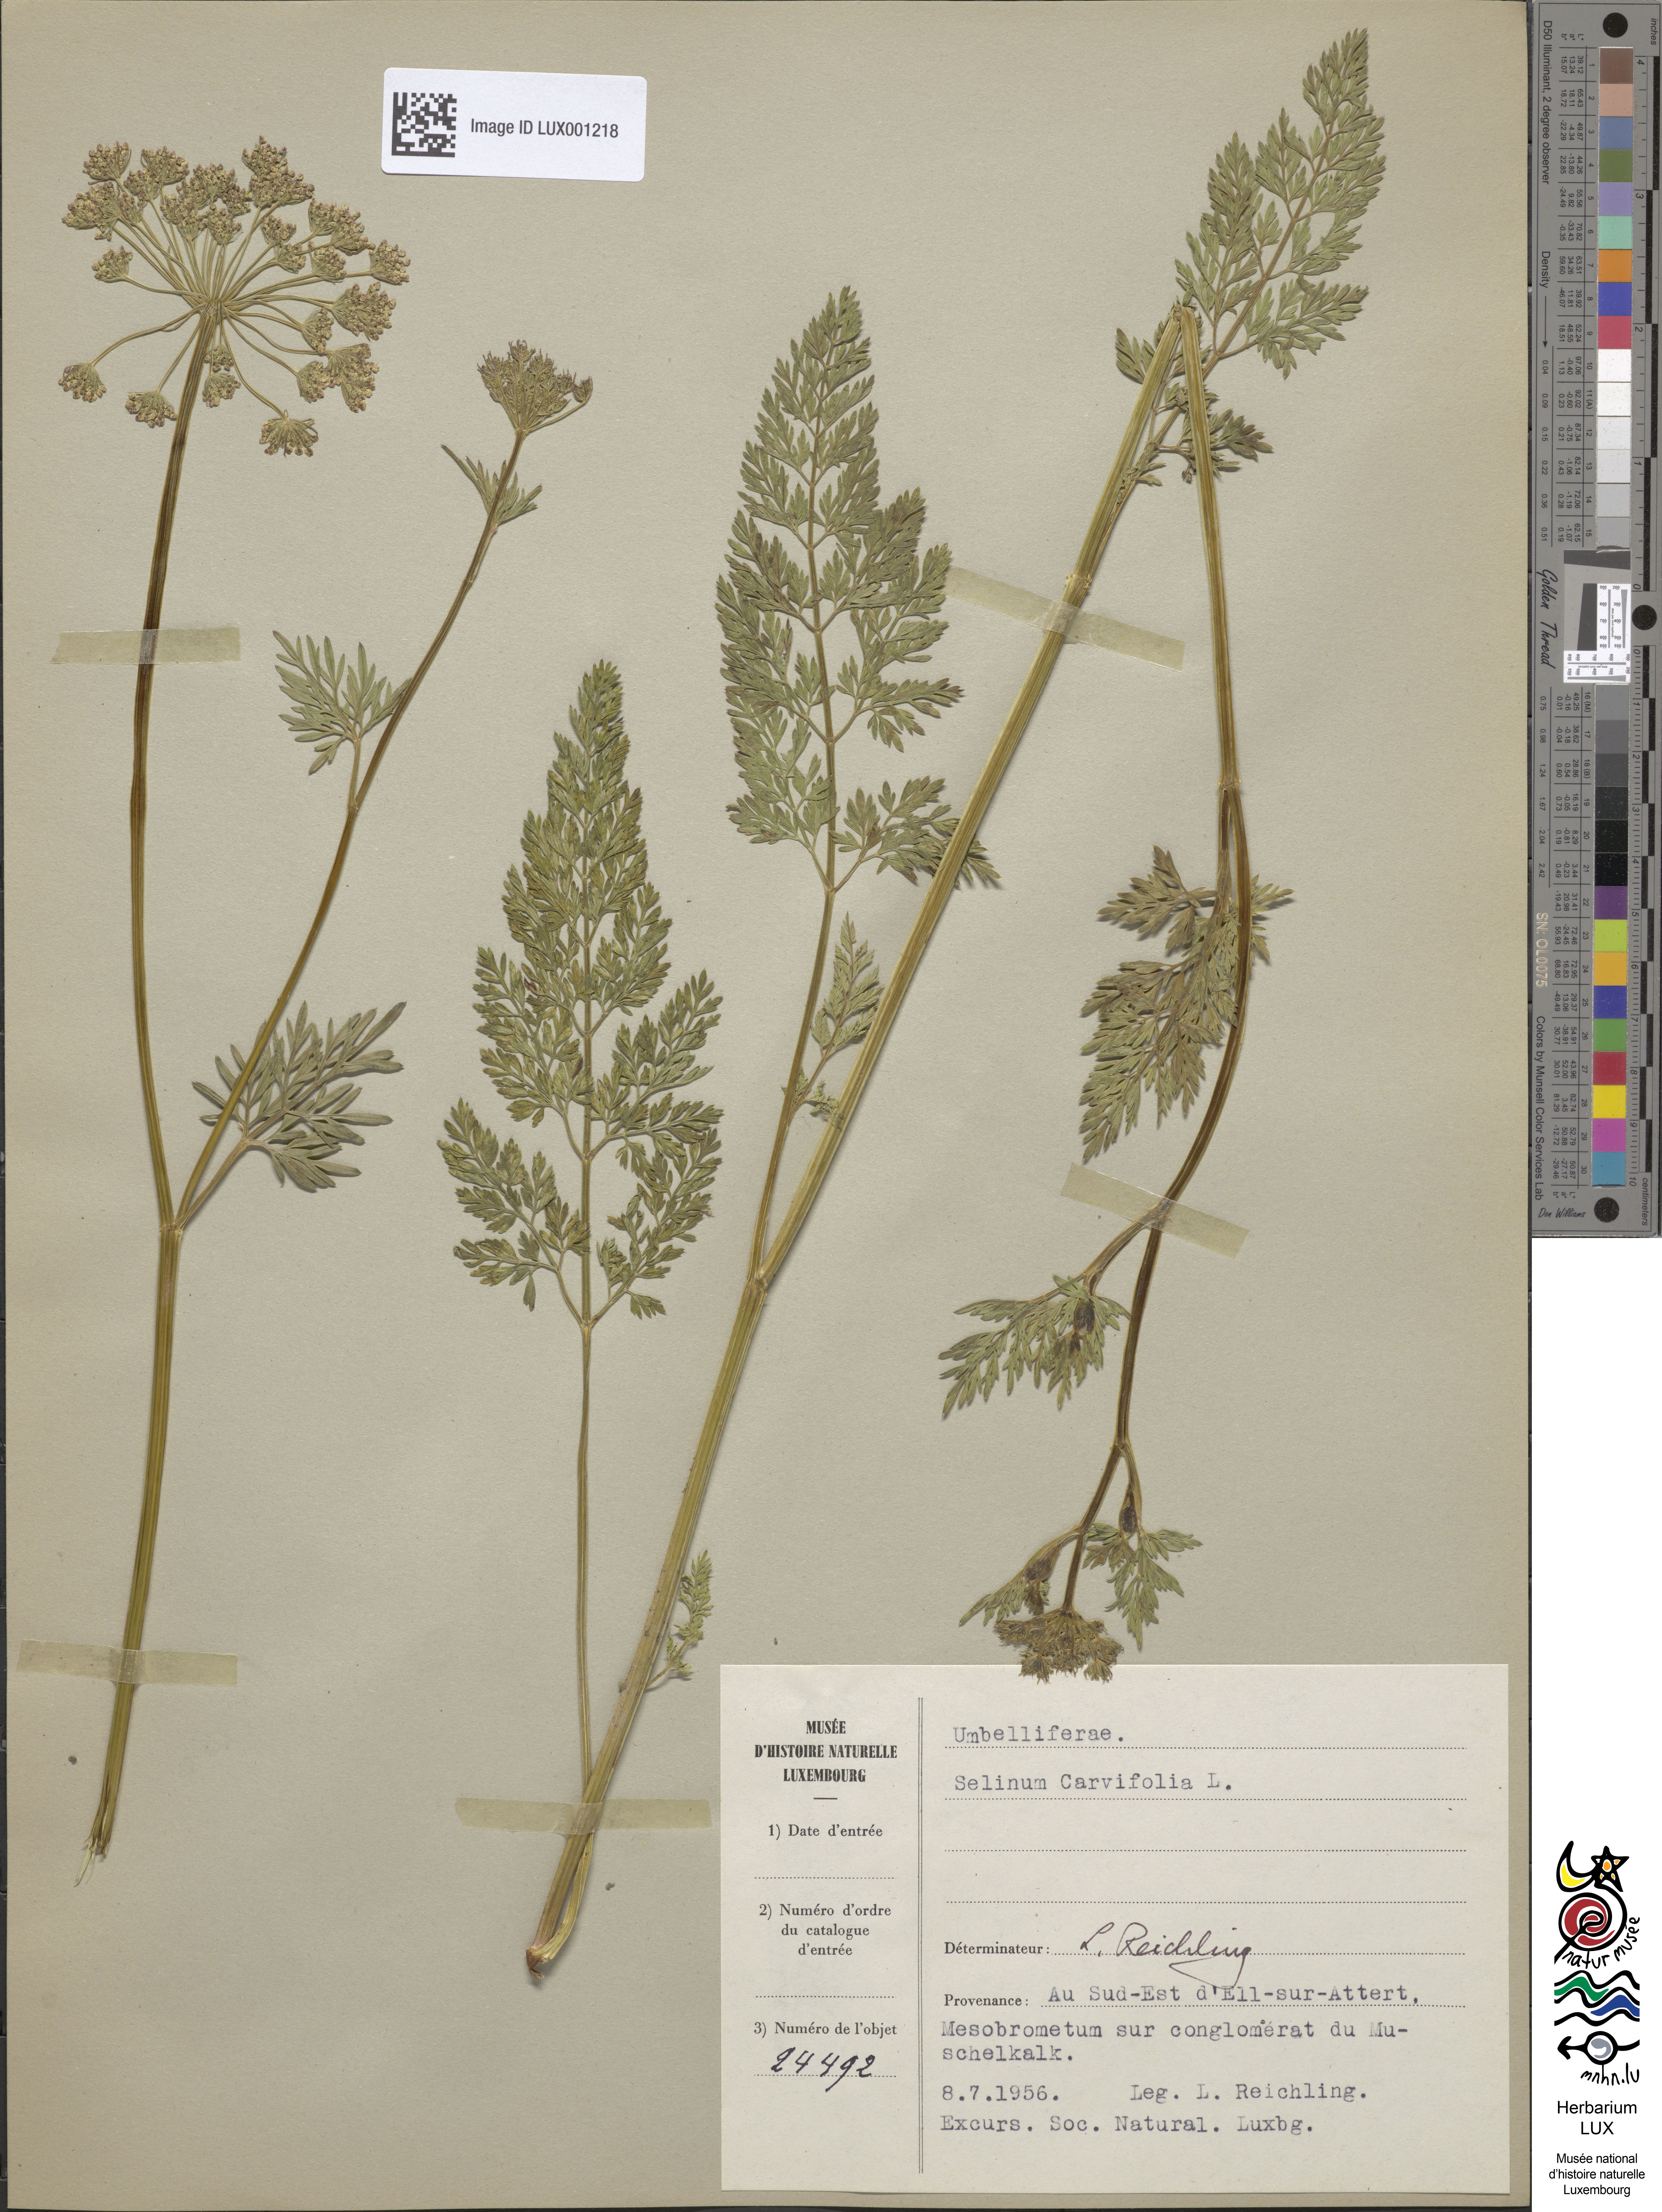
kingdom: Plantae
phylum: Tracheophyta
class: Magnoliopsida
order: Apiales
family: Apiaceae
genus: Selinum
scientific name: Selinum carvifolia
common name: Cambridge milk-parsley
